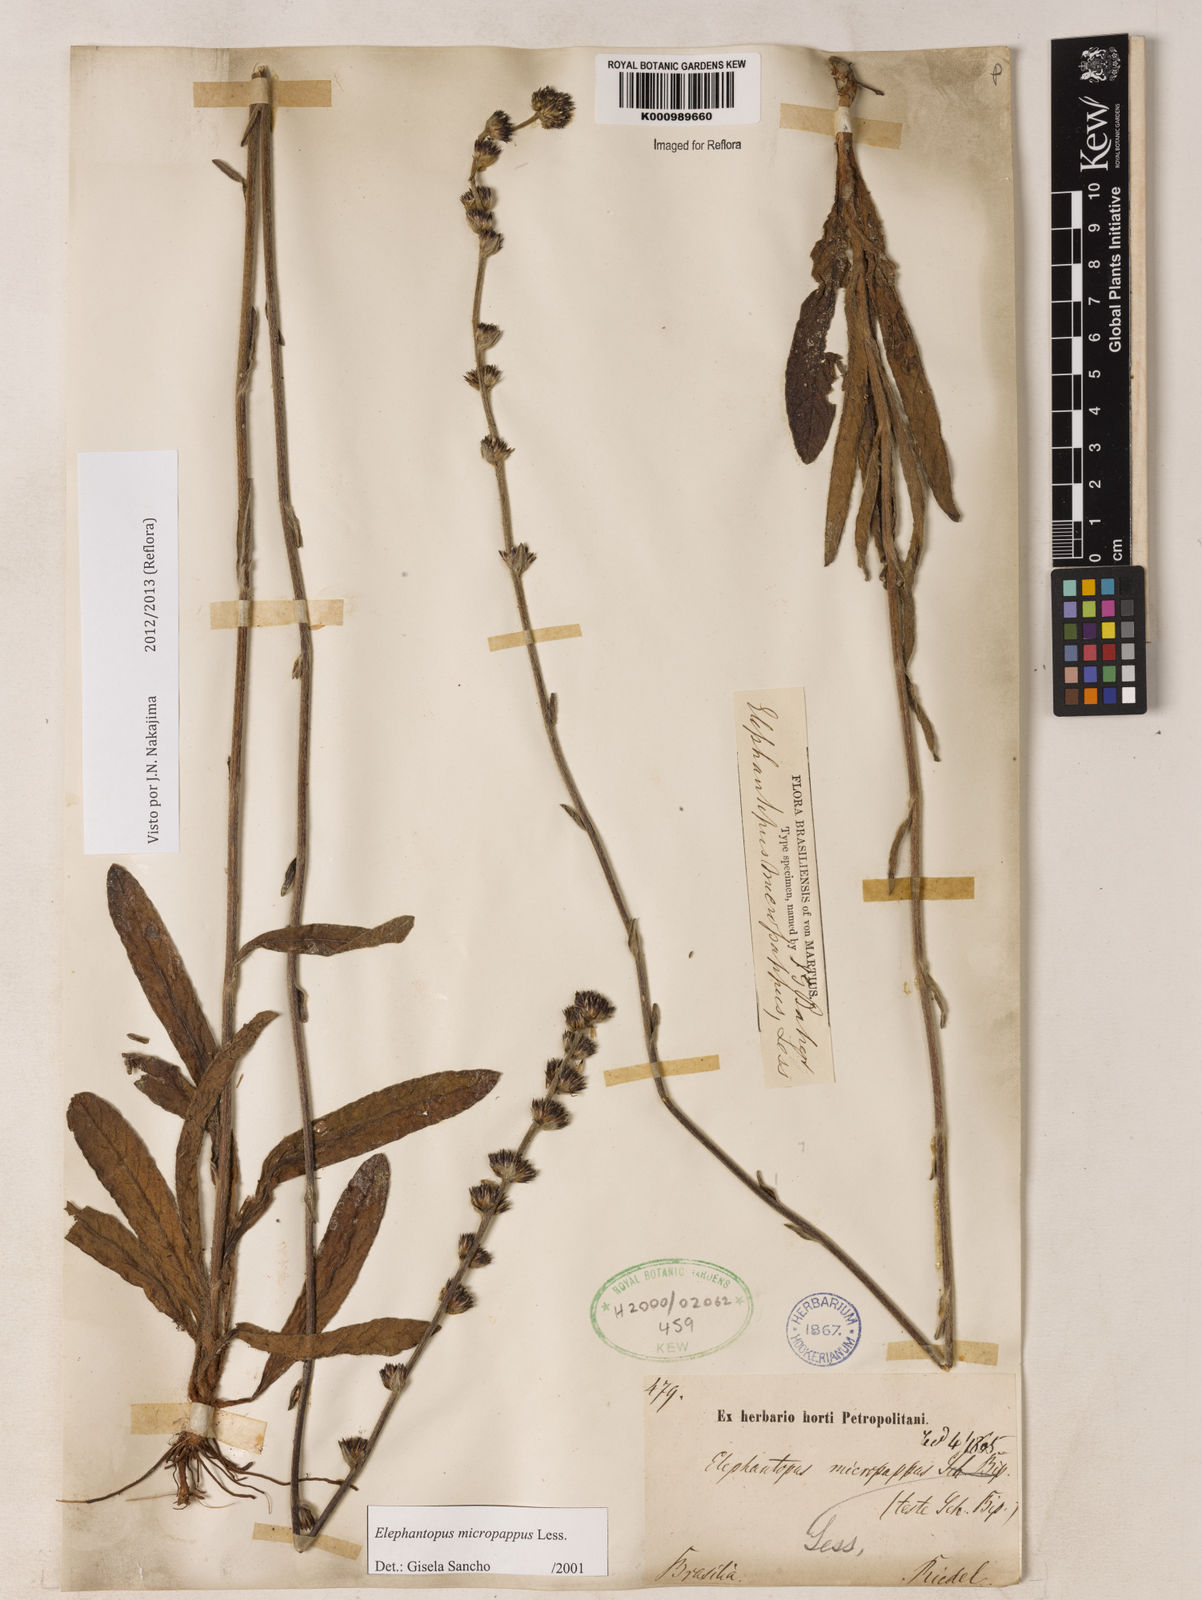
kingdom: Plantae
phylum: Tracheophyta
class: Magnoliopsida
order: Asterales
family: Asteraceae
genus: Elephantopus
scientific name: Elephantopus micropappus
